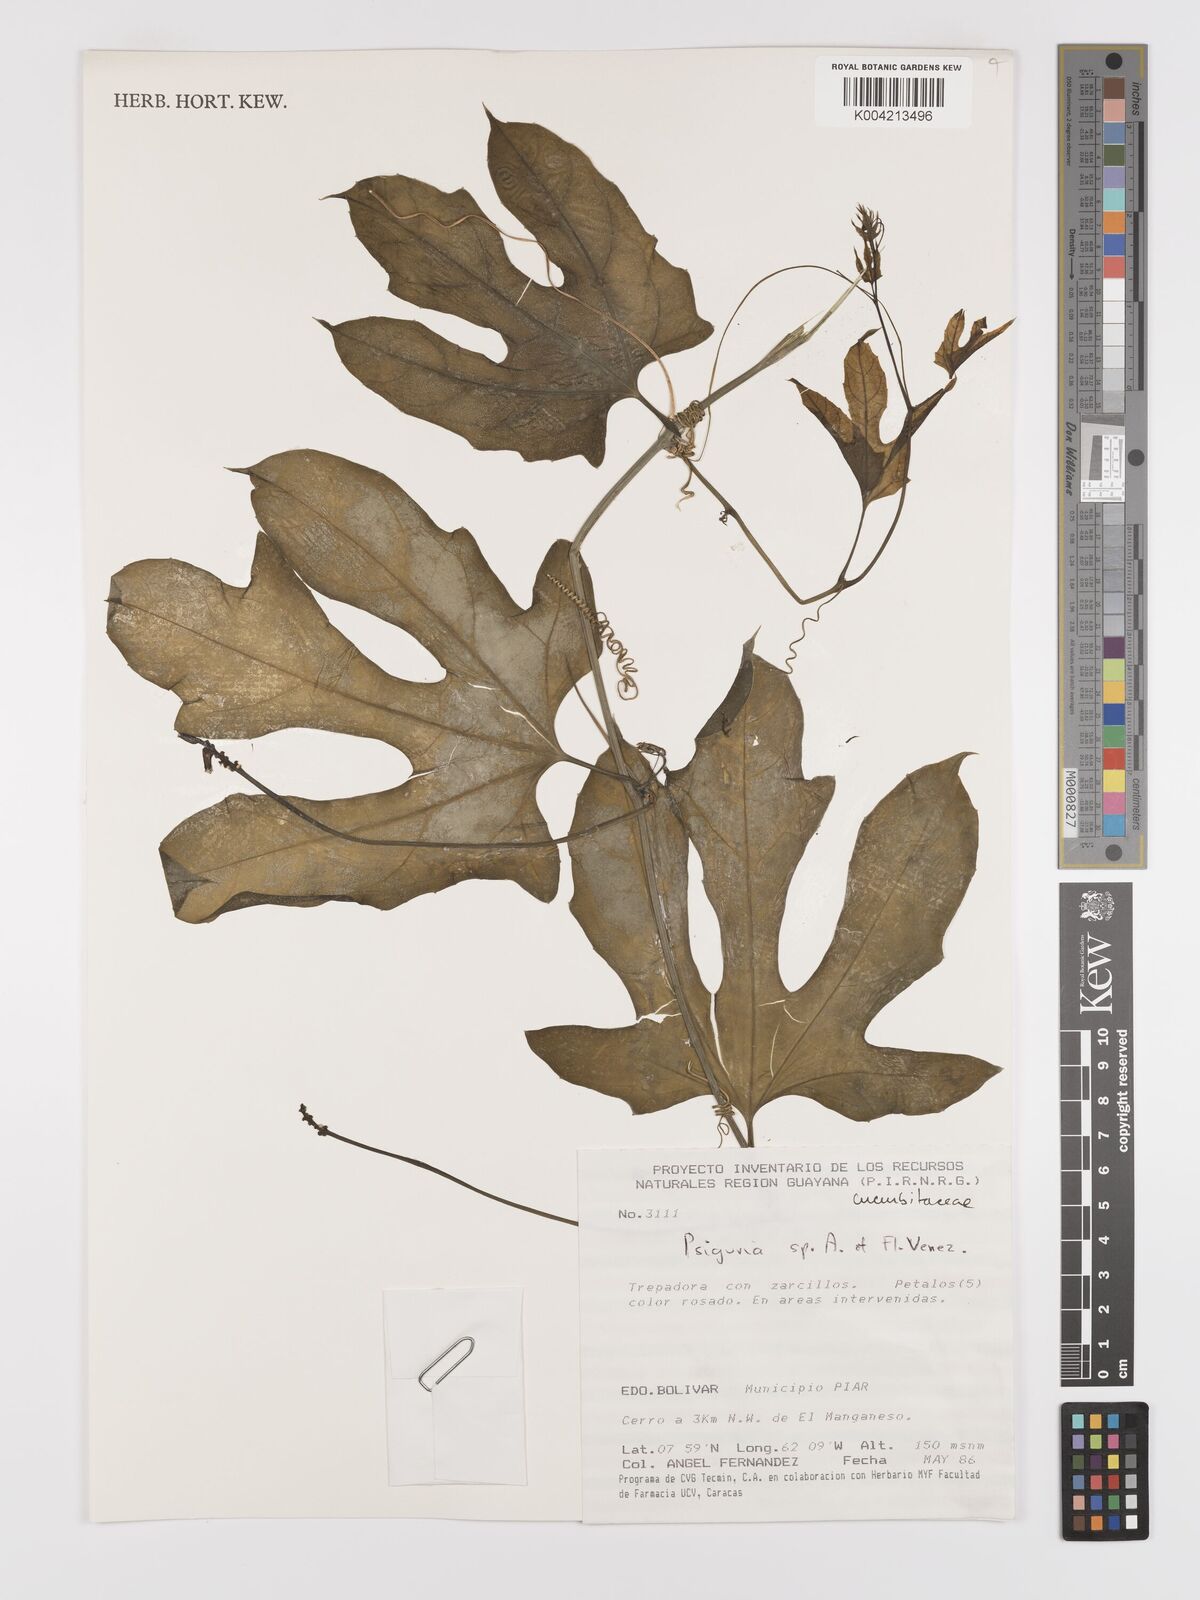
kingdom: Plantae
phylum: Tracheophyta
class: Magnoliopsida
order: Cucurbitales
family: Cucurbitaceae
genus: Psiguria
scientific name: Psiguria
